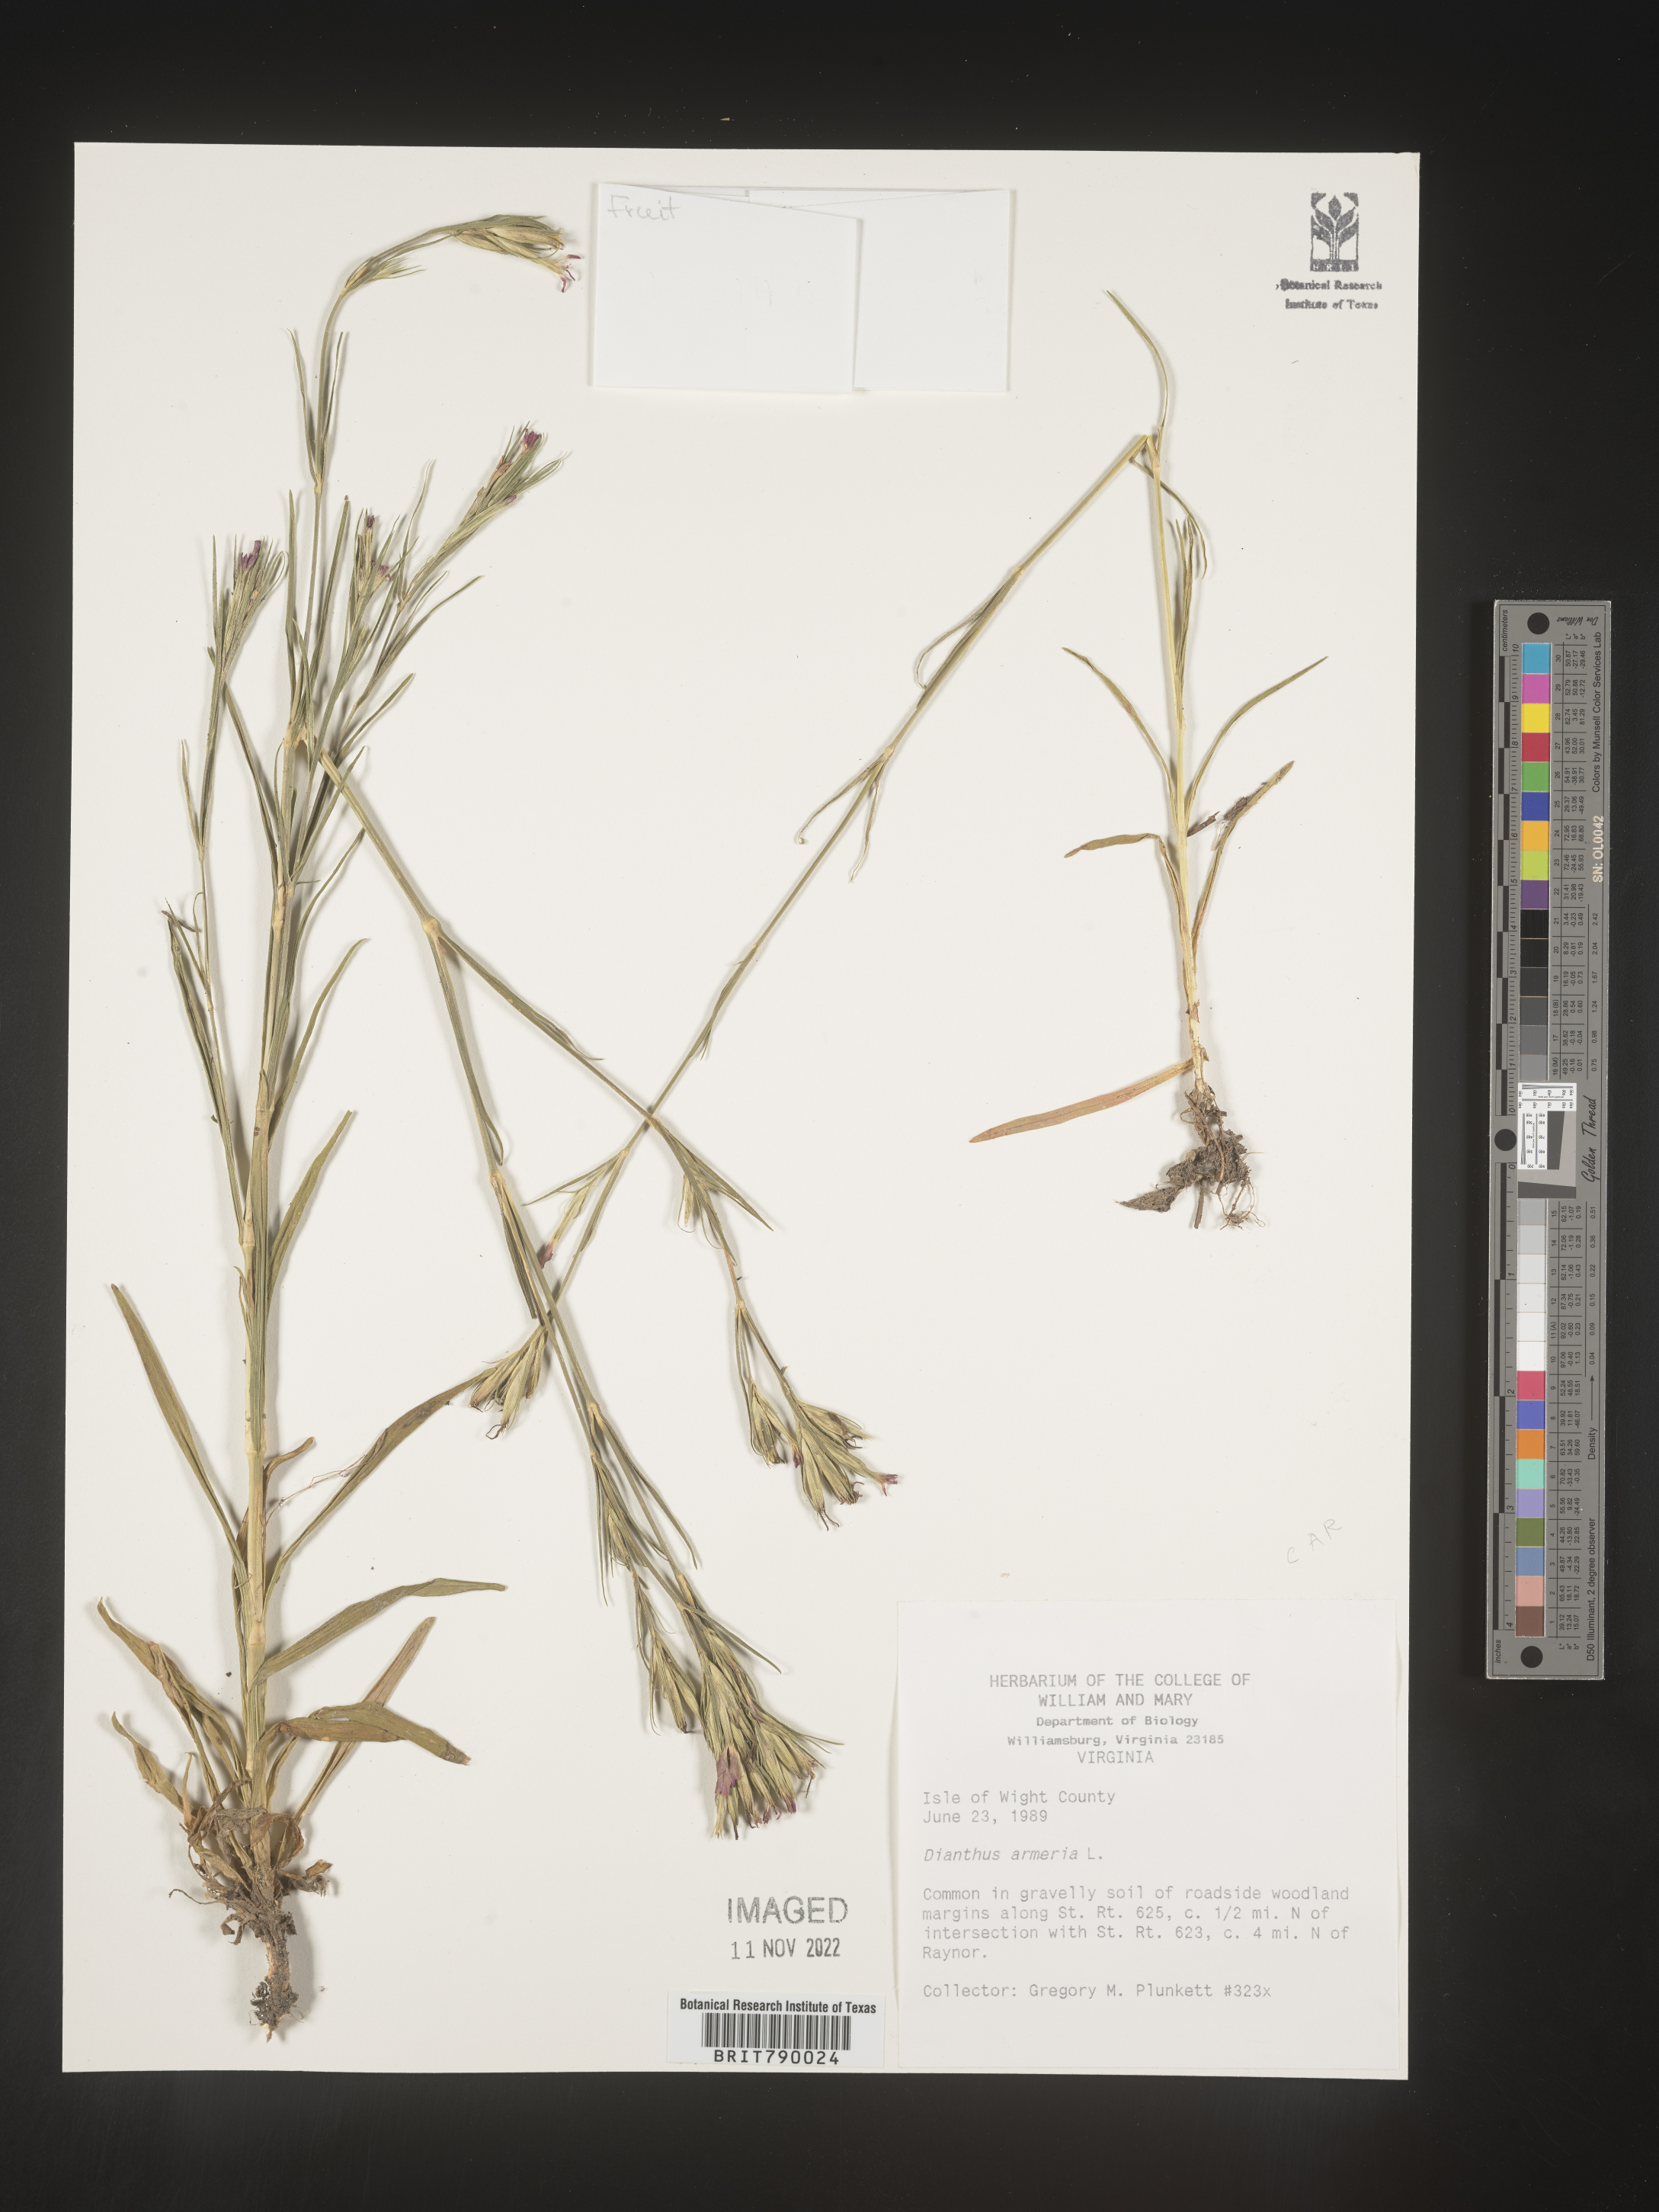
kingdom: Plantae
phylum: Tracheophyta
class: Magnoliopsida
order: Caryophyllales
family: Caryophyllaceae
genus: Dianthus
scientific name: Dianthus armeria
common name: Deptford pink
